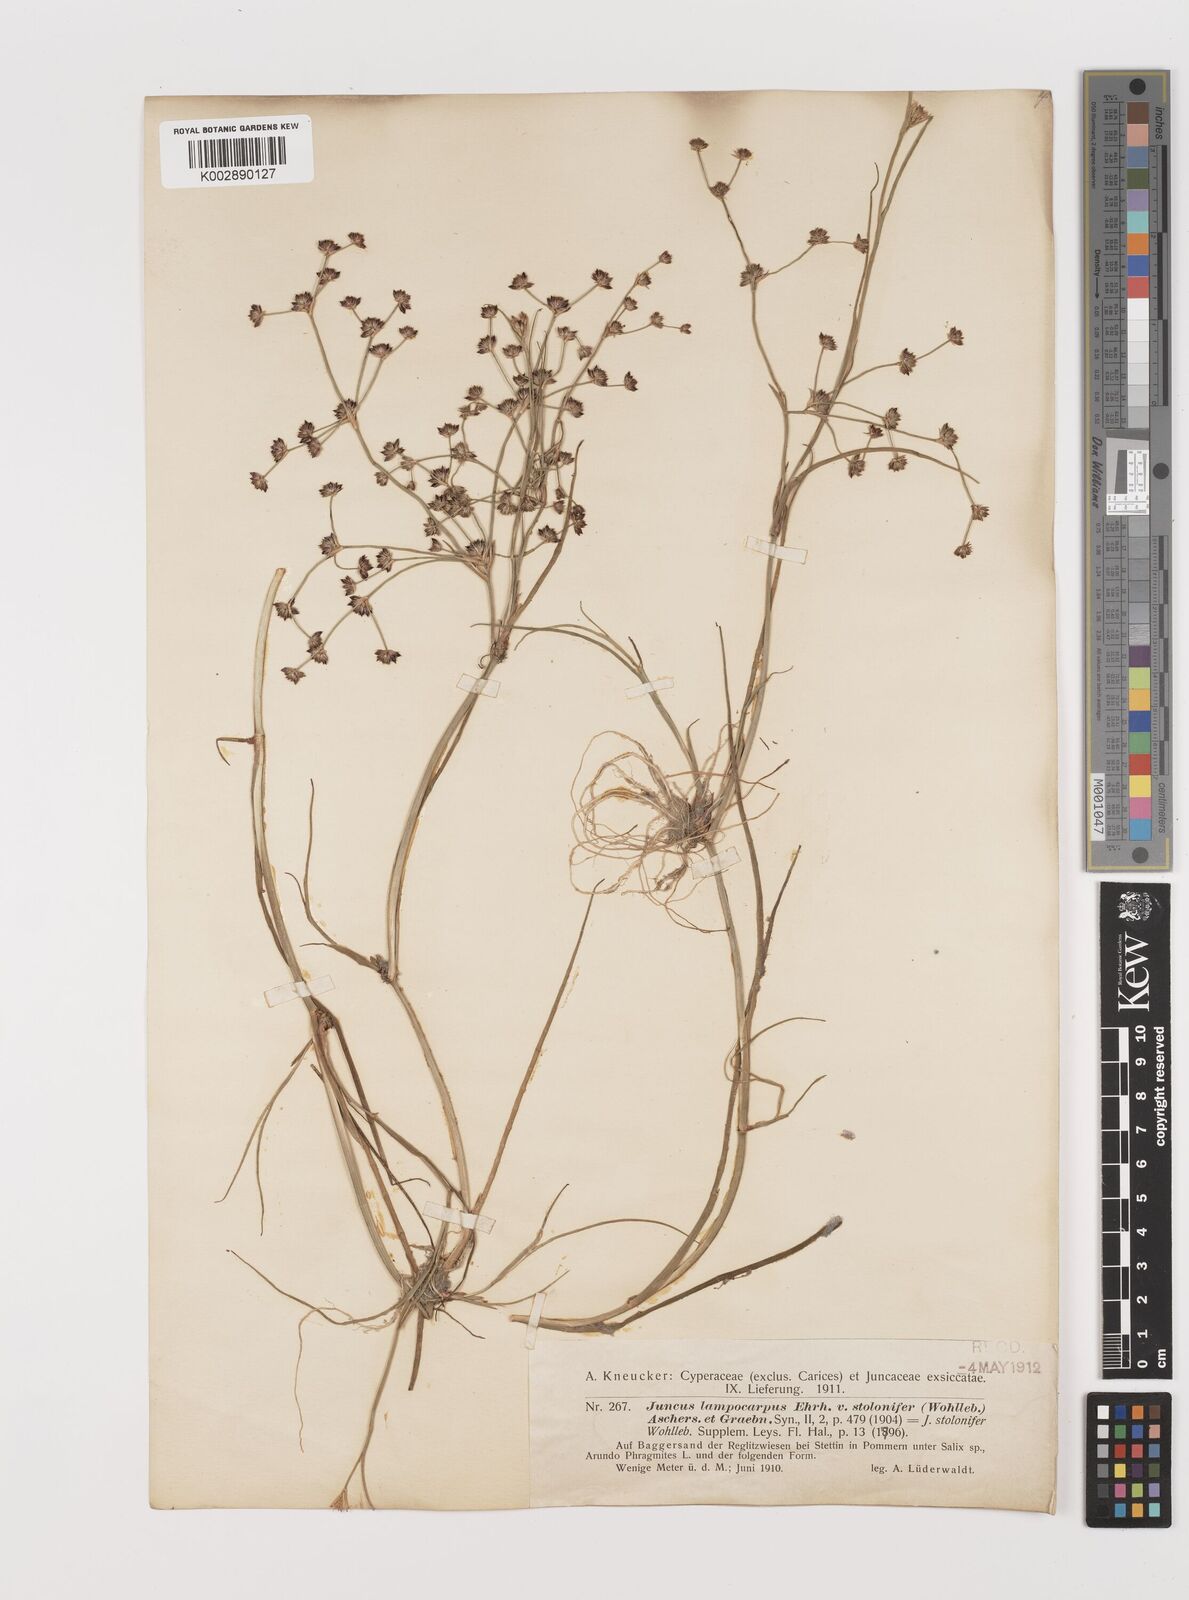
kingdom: Plantae
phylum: Tracheophyta
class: Liliopsida
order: Poales
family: Juncaceae
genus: Juncus
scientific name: Juncus articulatus
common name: Jointed rush
